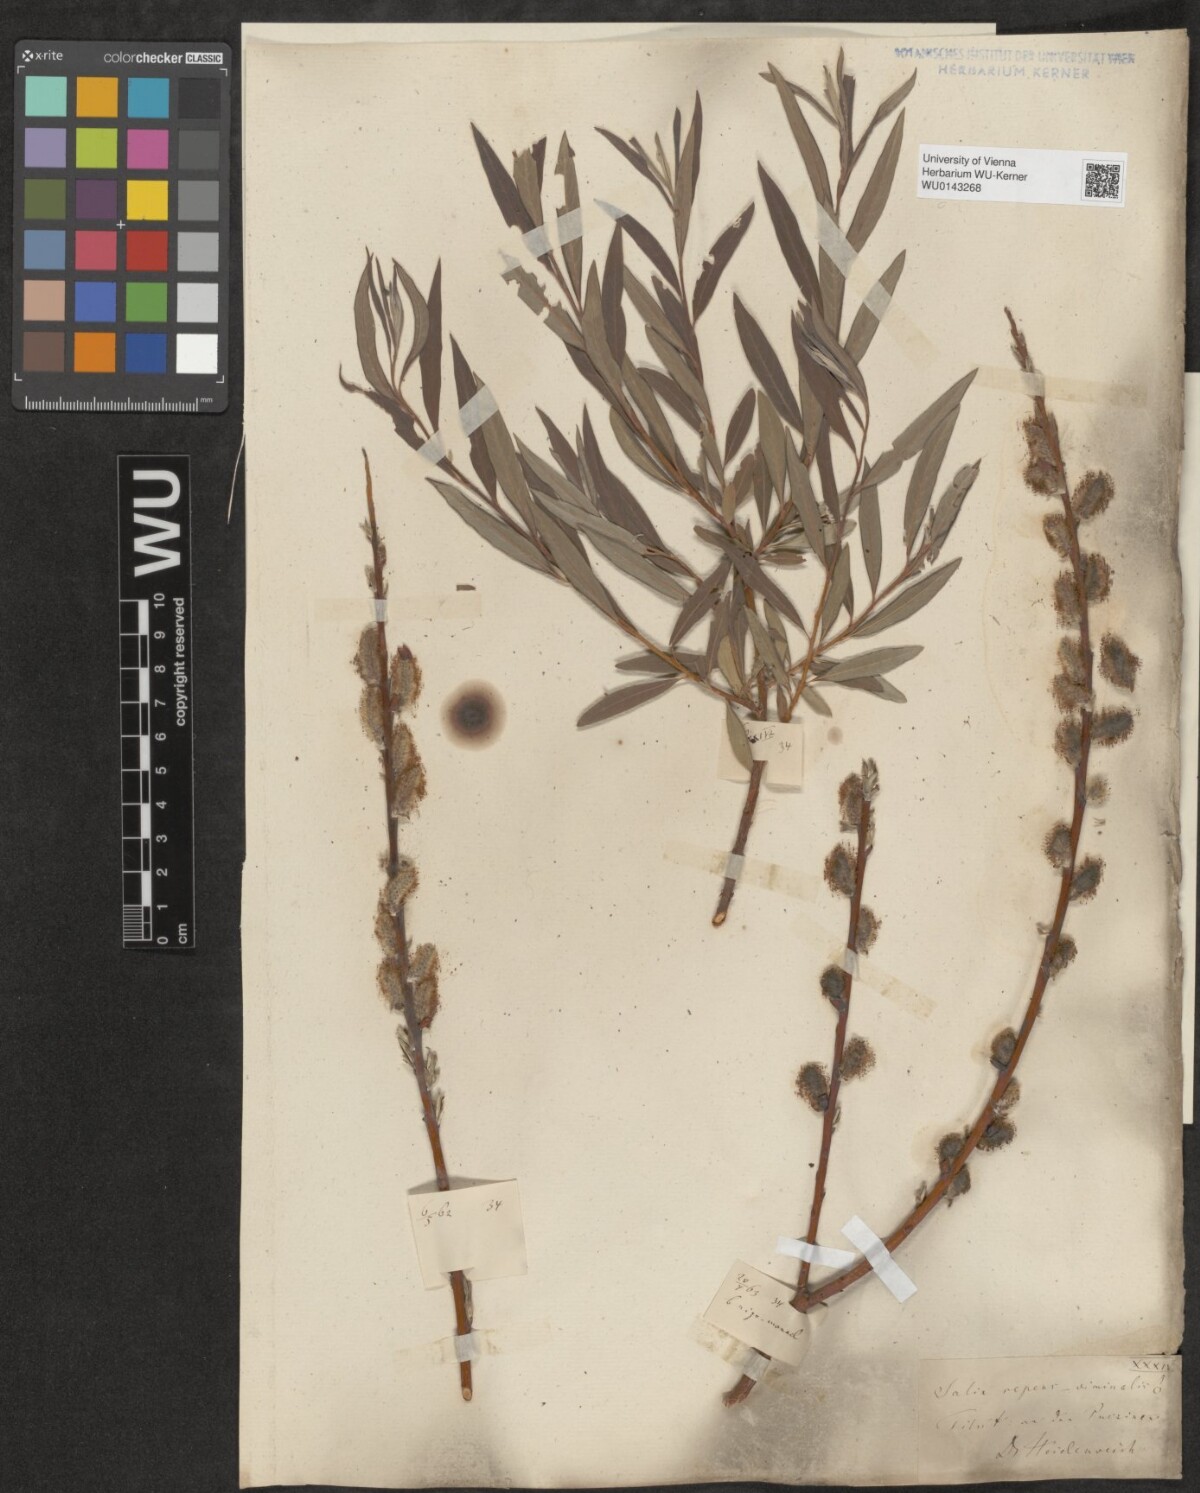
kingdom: Plantae
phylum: Tracheophyta
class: Magnoliopsida
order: Malpighiales
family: Salicaceae
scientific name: Salicaceae
